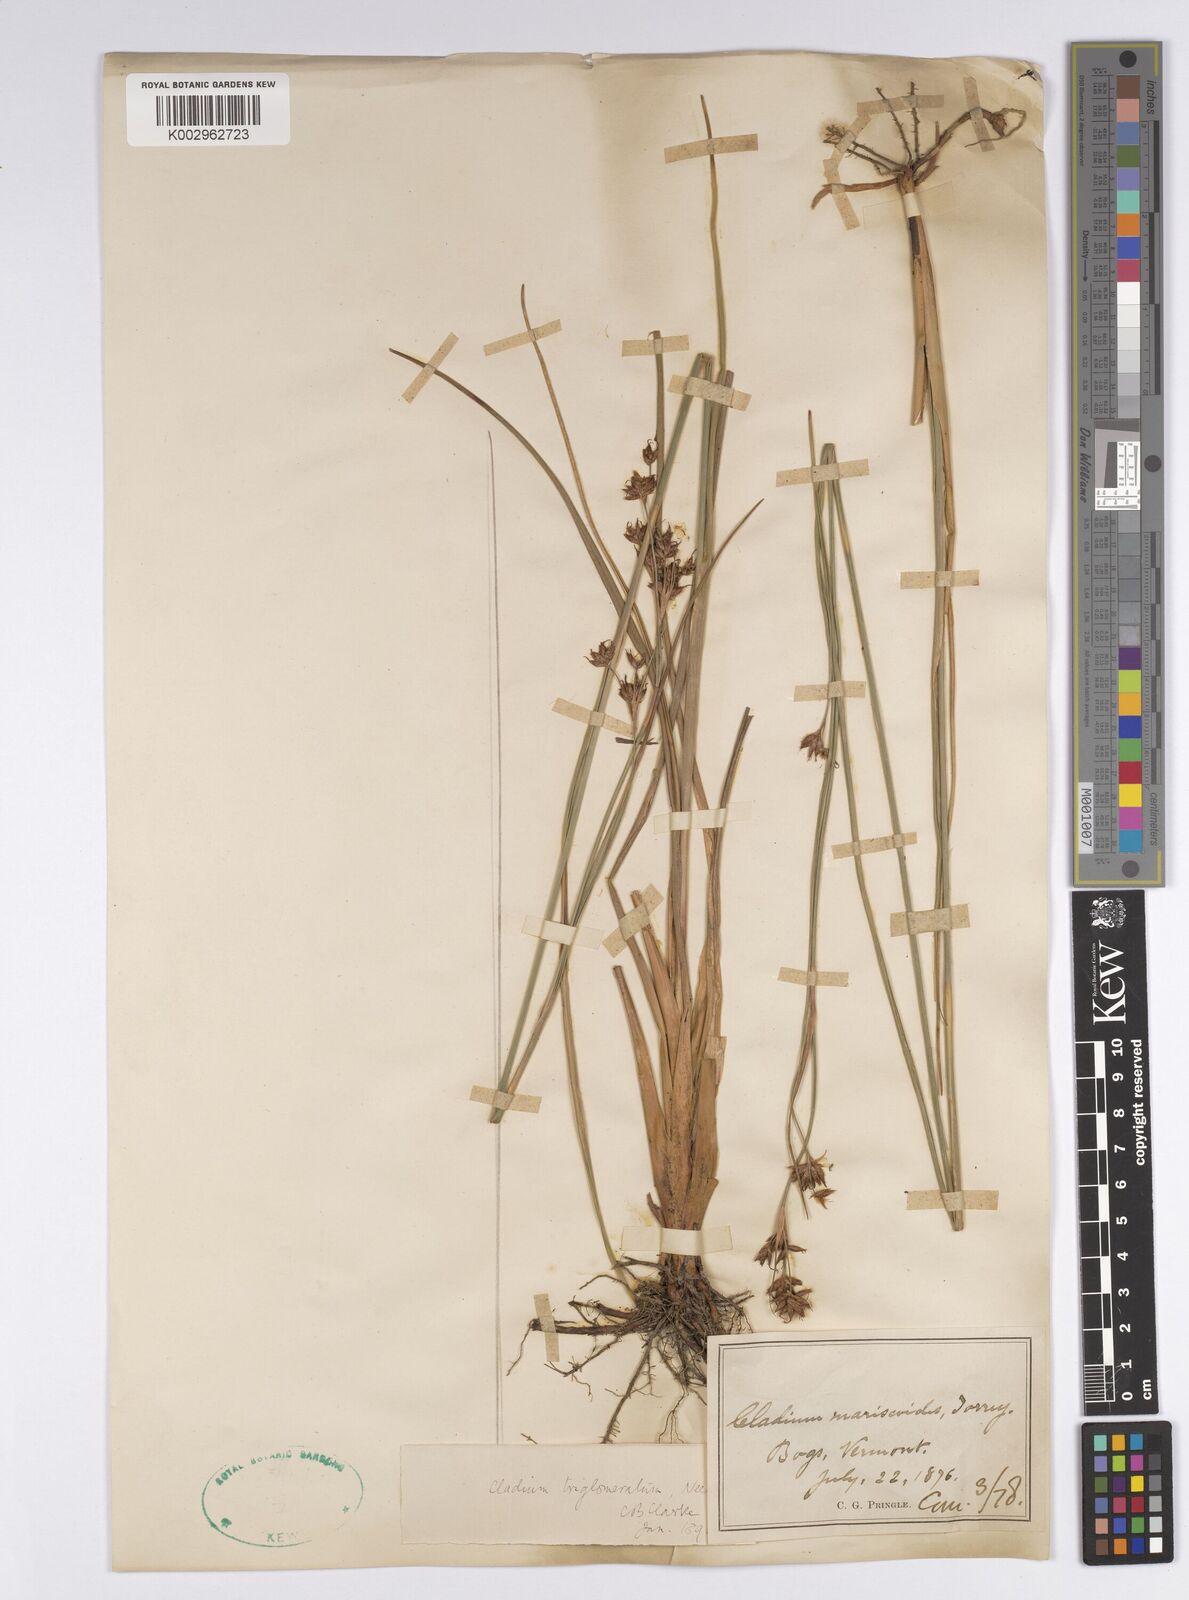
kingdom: Plantae
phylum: Tracheophyta
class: Liliopsida
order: Poales
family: Cyperaceae
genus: Cladium
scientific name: Cladium mariscoides
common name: Smooth sawgrass
